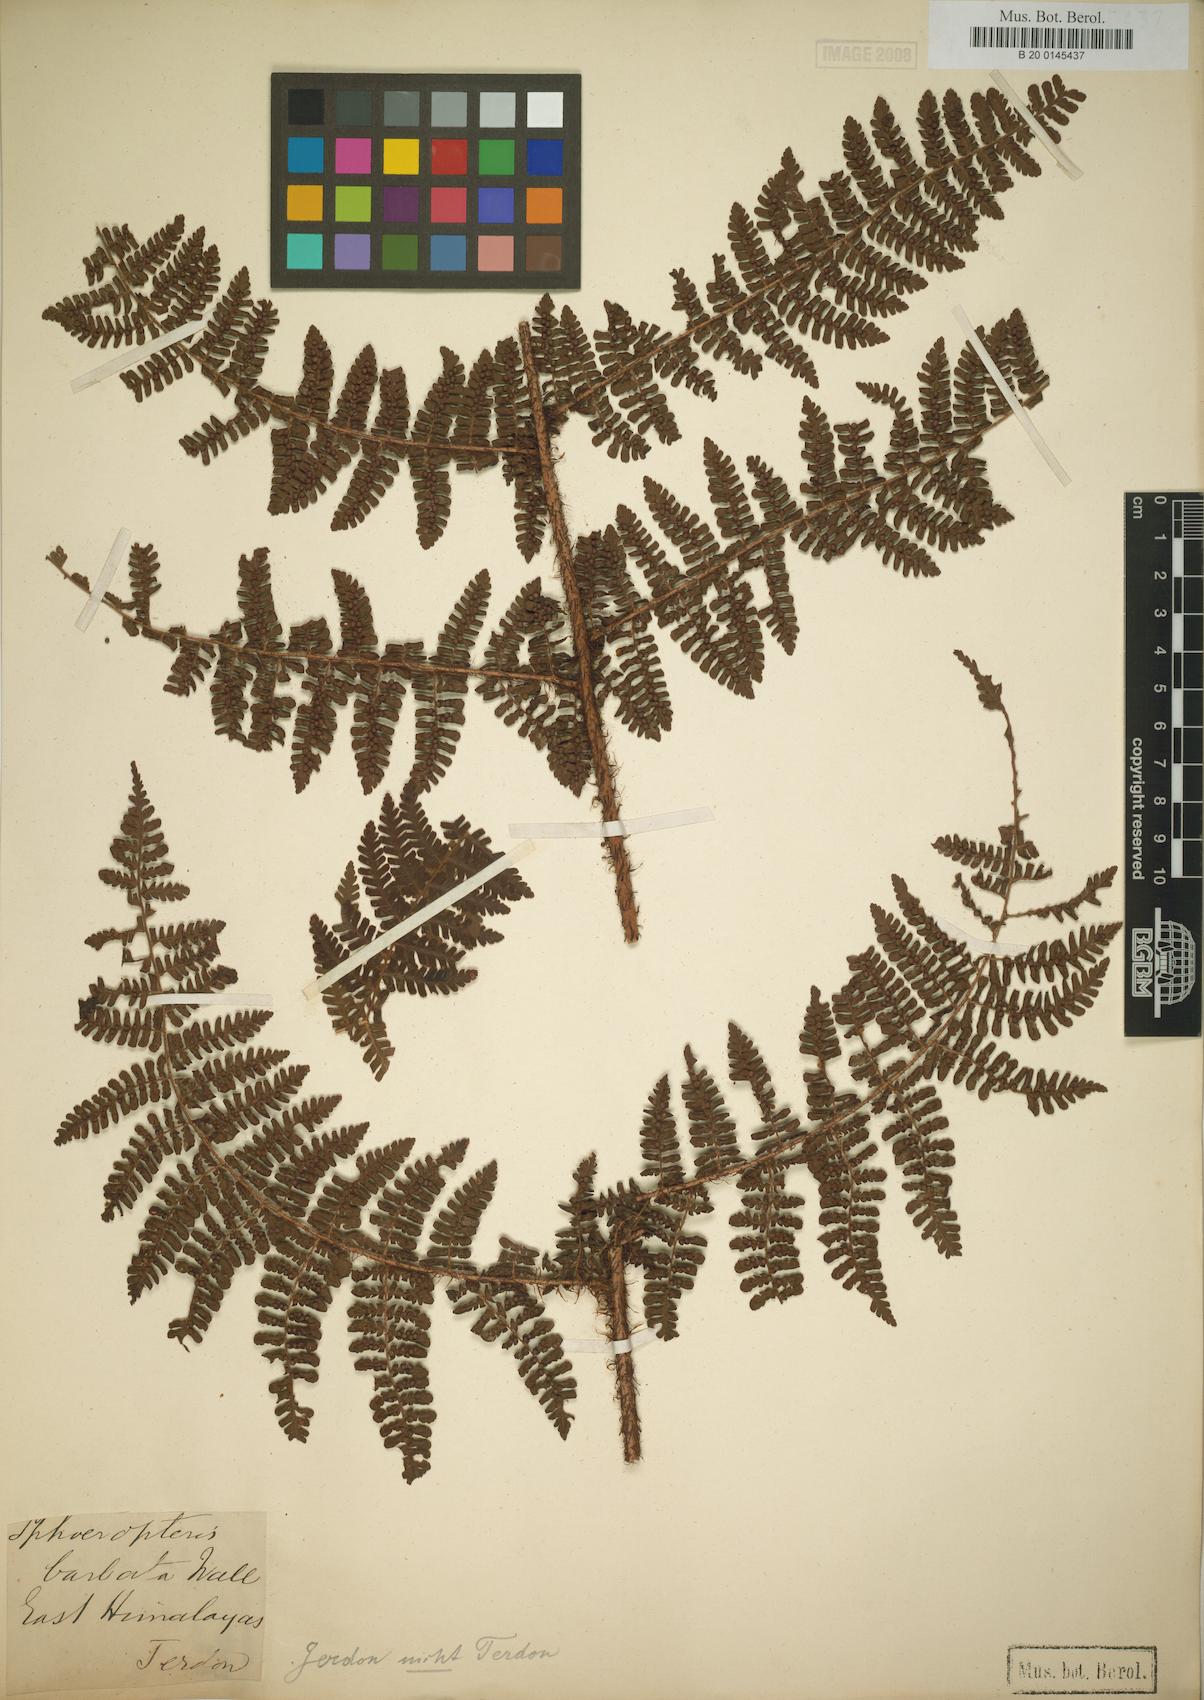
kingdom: Plantae
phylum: Tracheophyta
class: Polypodiopsida
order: Polypodiales
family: Dryopteridaceae
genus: Dryopteris
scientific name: Dryopteris peranema
